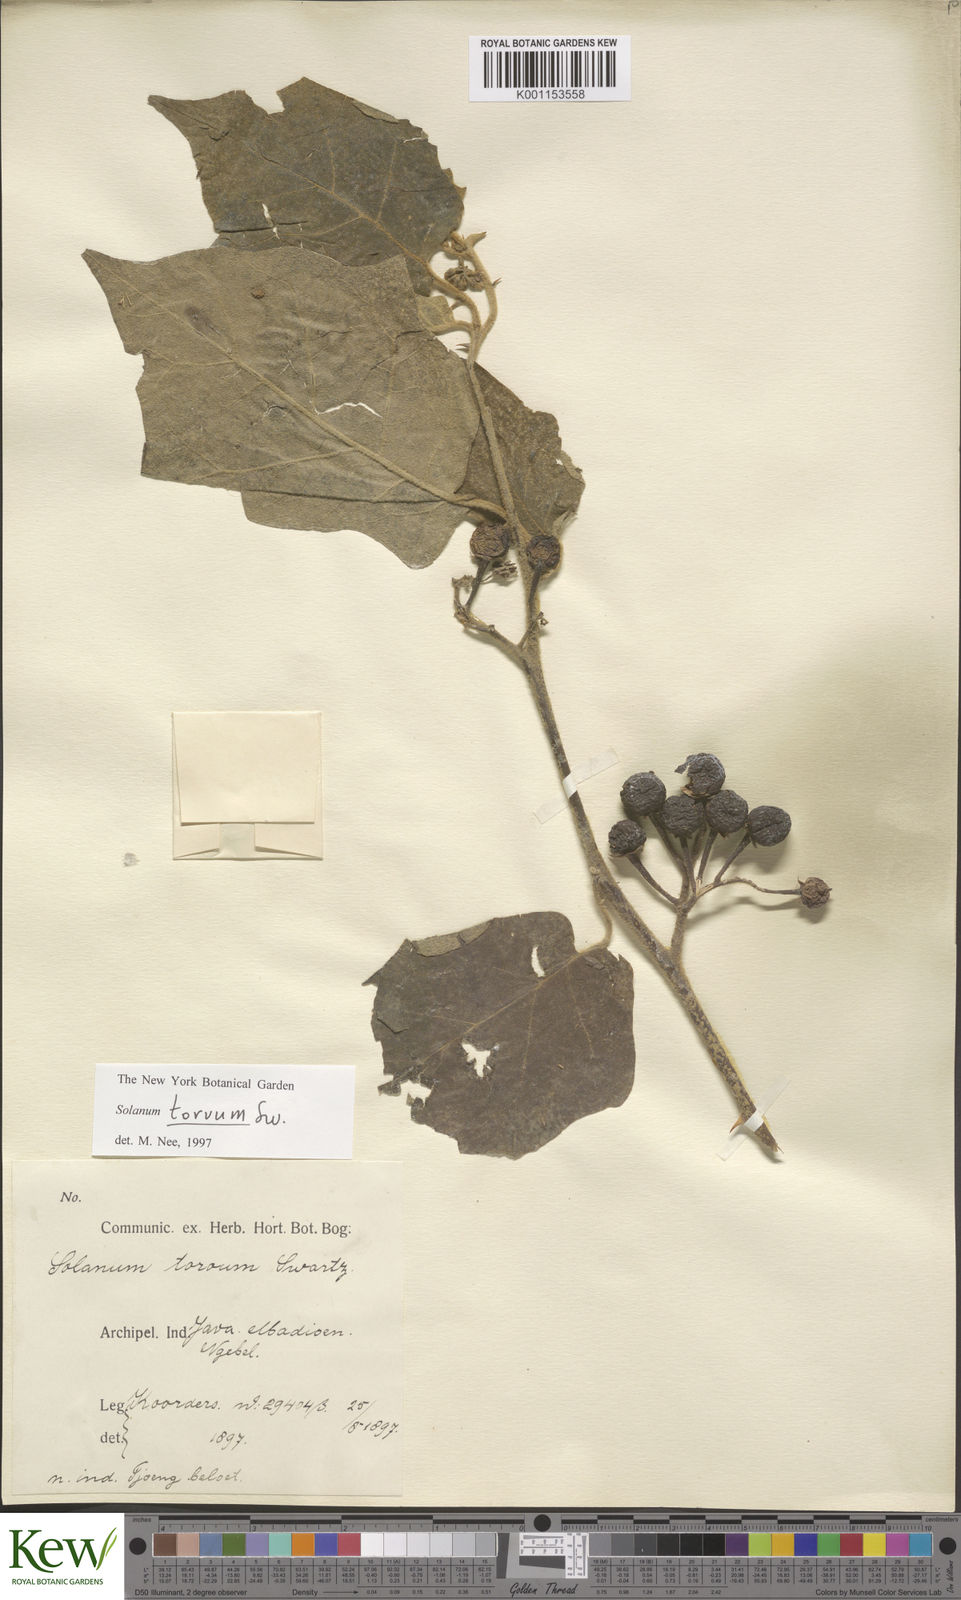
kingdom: Plantae
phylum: Tracheophyta
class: Magnoliopsida
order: Solanales
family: Solanaceae
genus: Solanum
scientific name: Solanum torvum
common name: Turkey berry
